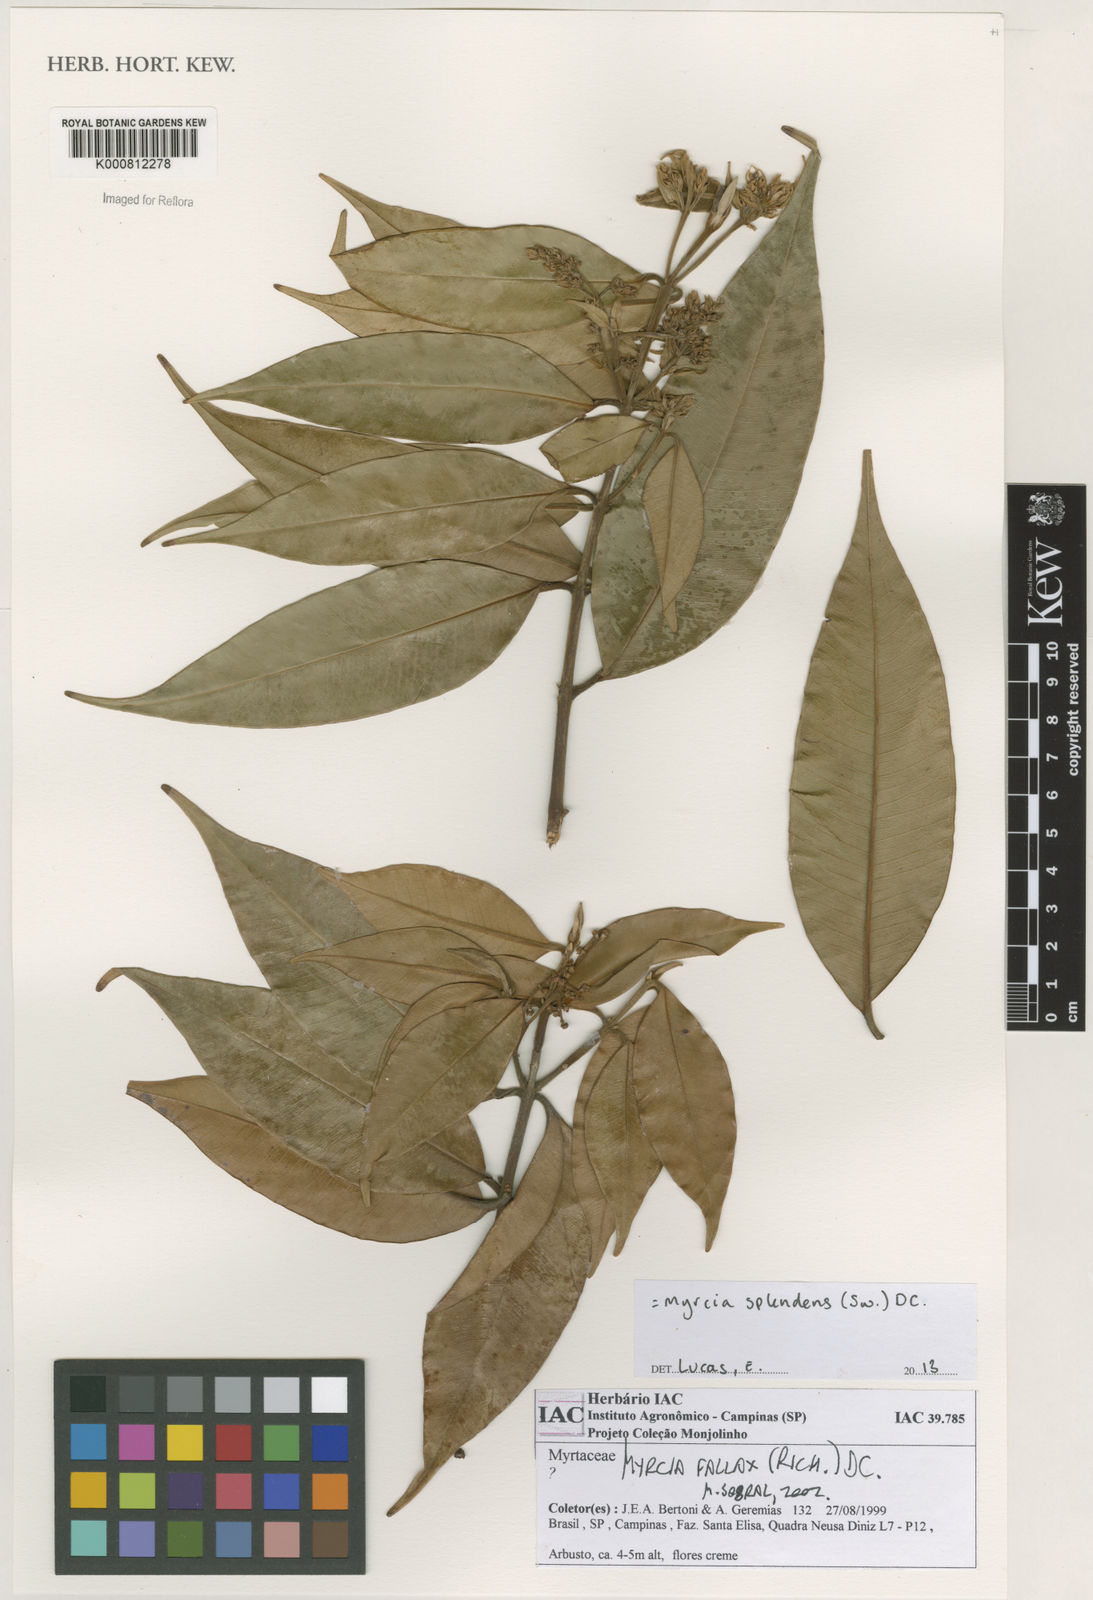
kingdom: Plantae
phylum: Tracheophyta
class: Magnoliopsida
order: Myrtales
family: Myrtaceae
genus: Myrcia
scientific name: Myrcia splendens
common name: Surinam cherry
